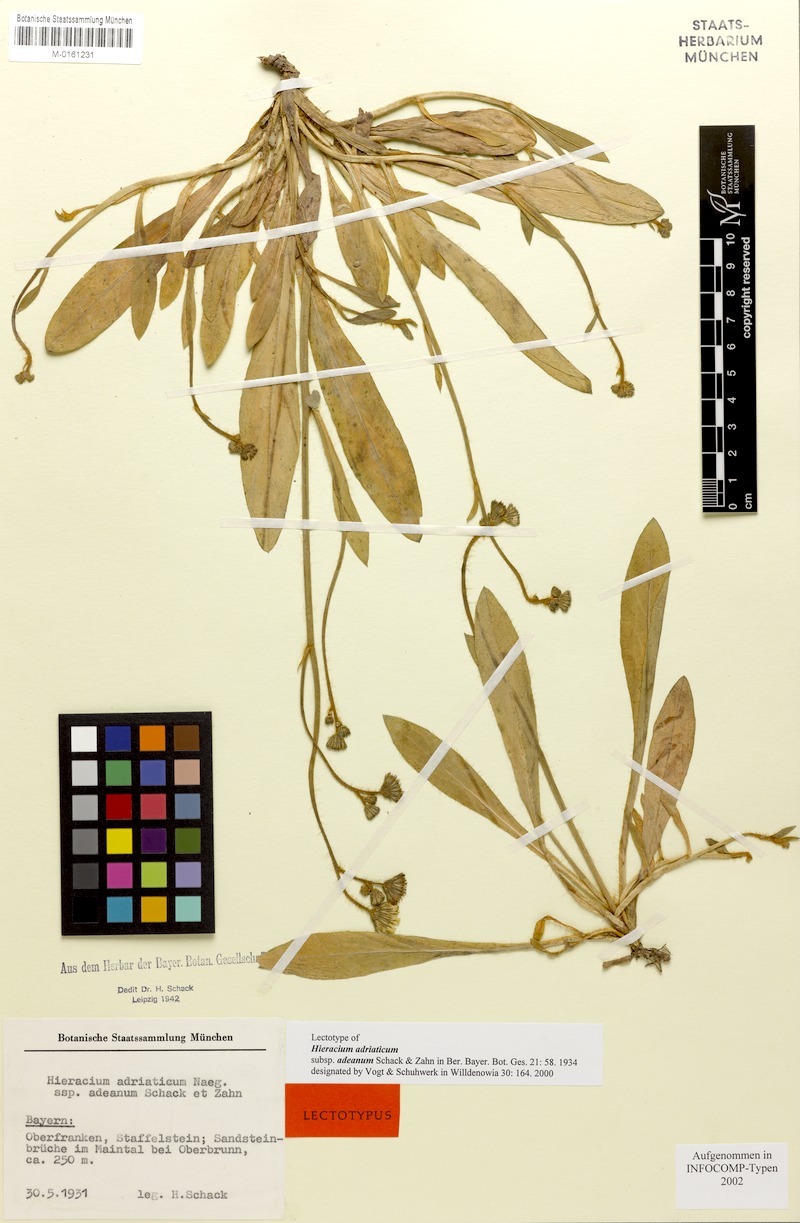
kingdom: Plantae
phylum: Tracheophyta
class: Magnoliopsida
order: Asterales
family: Asteraceae
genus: Pilosella
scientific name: Pilosella arida
